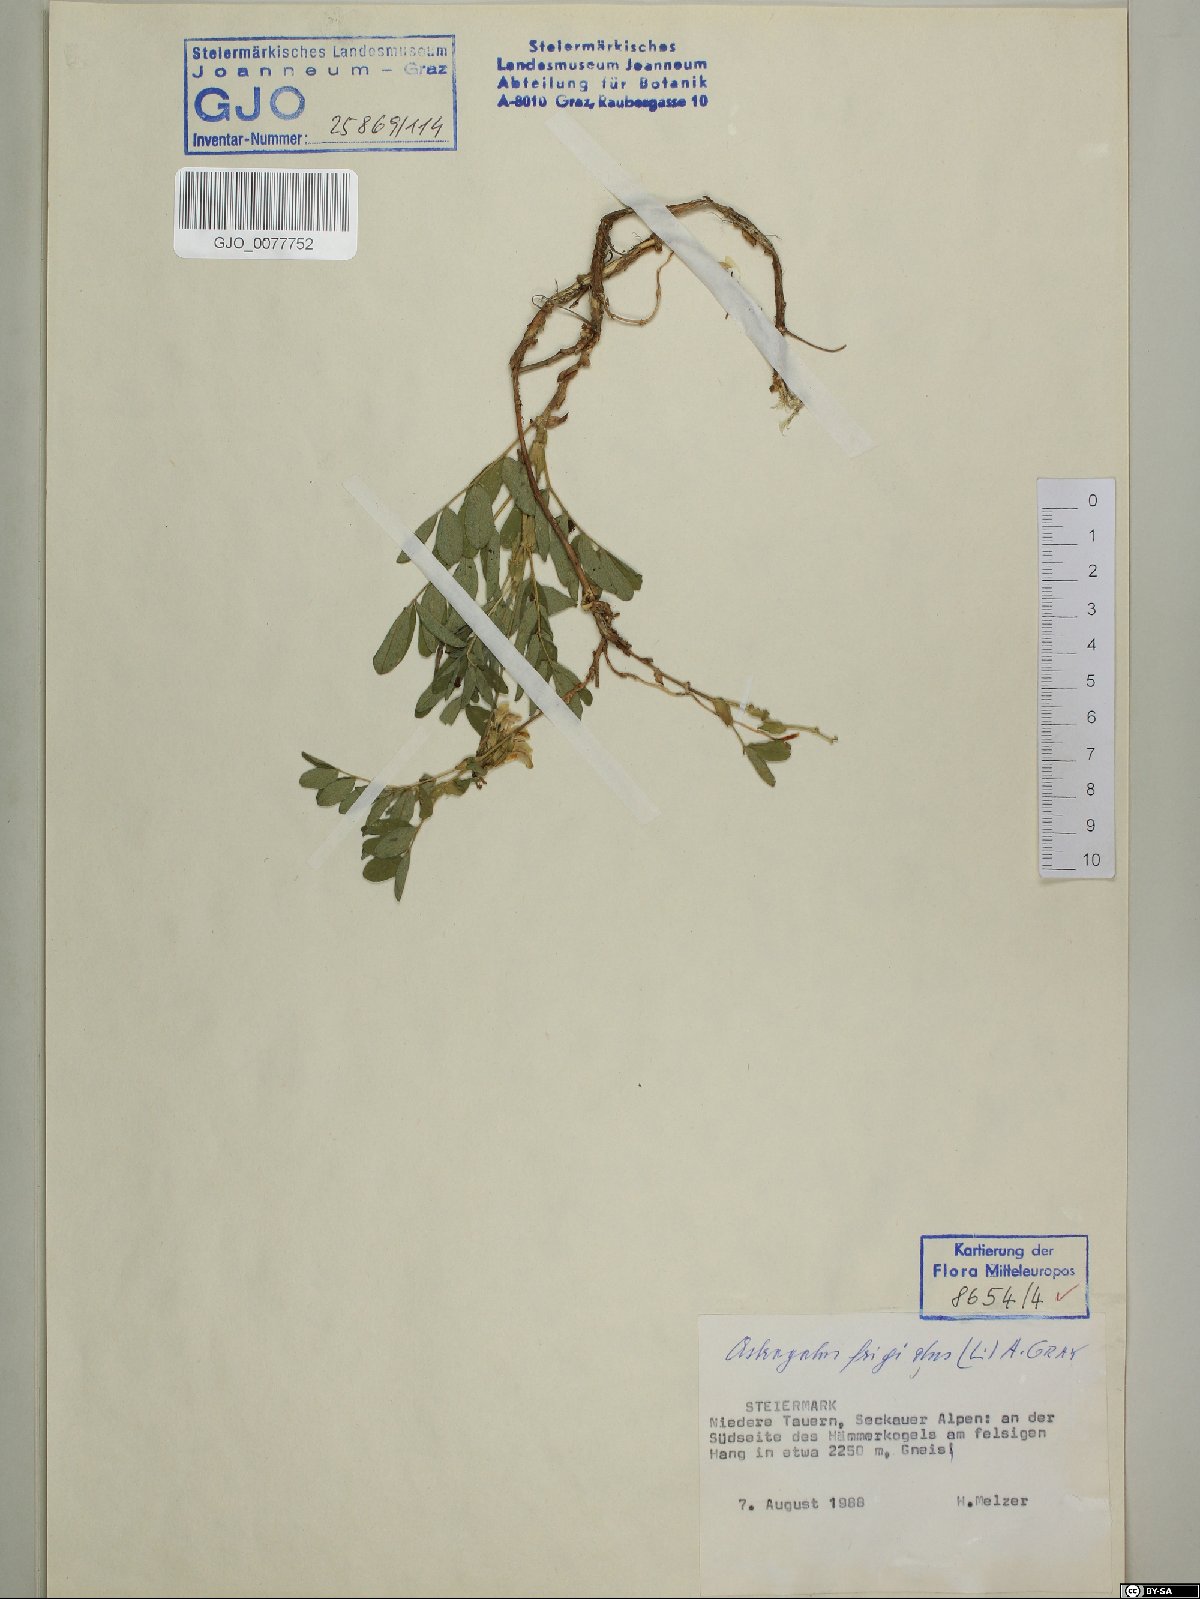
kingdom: Plantae
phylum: Tracheophyta
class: Magnoliopsida
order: Fabales
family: Fabaceae
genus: Astragalus
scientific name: Astragalus frigidus
